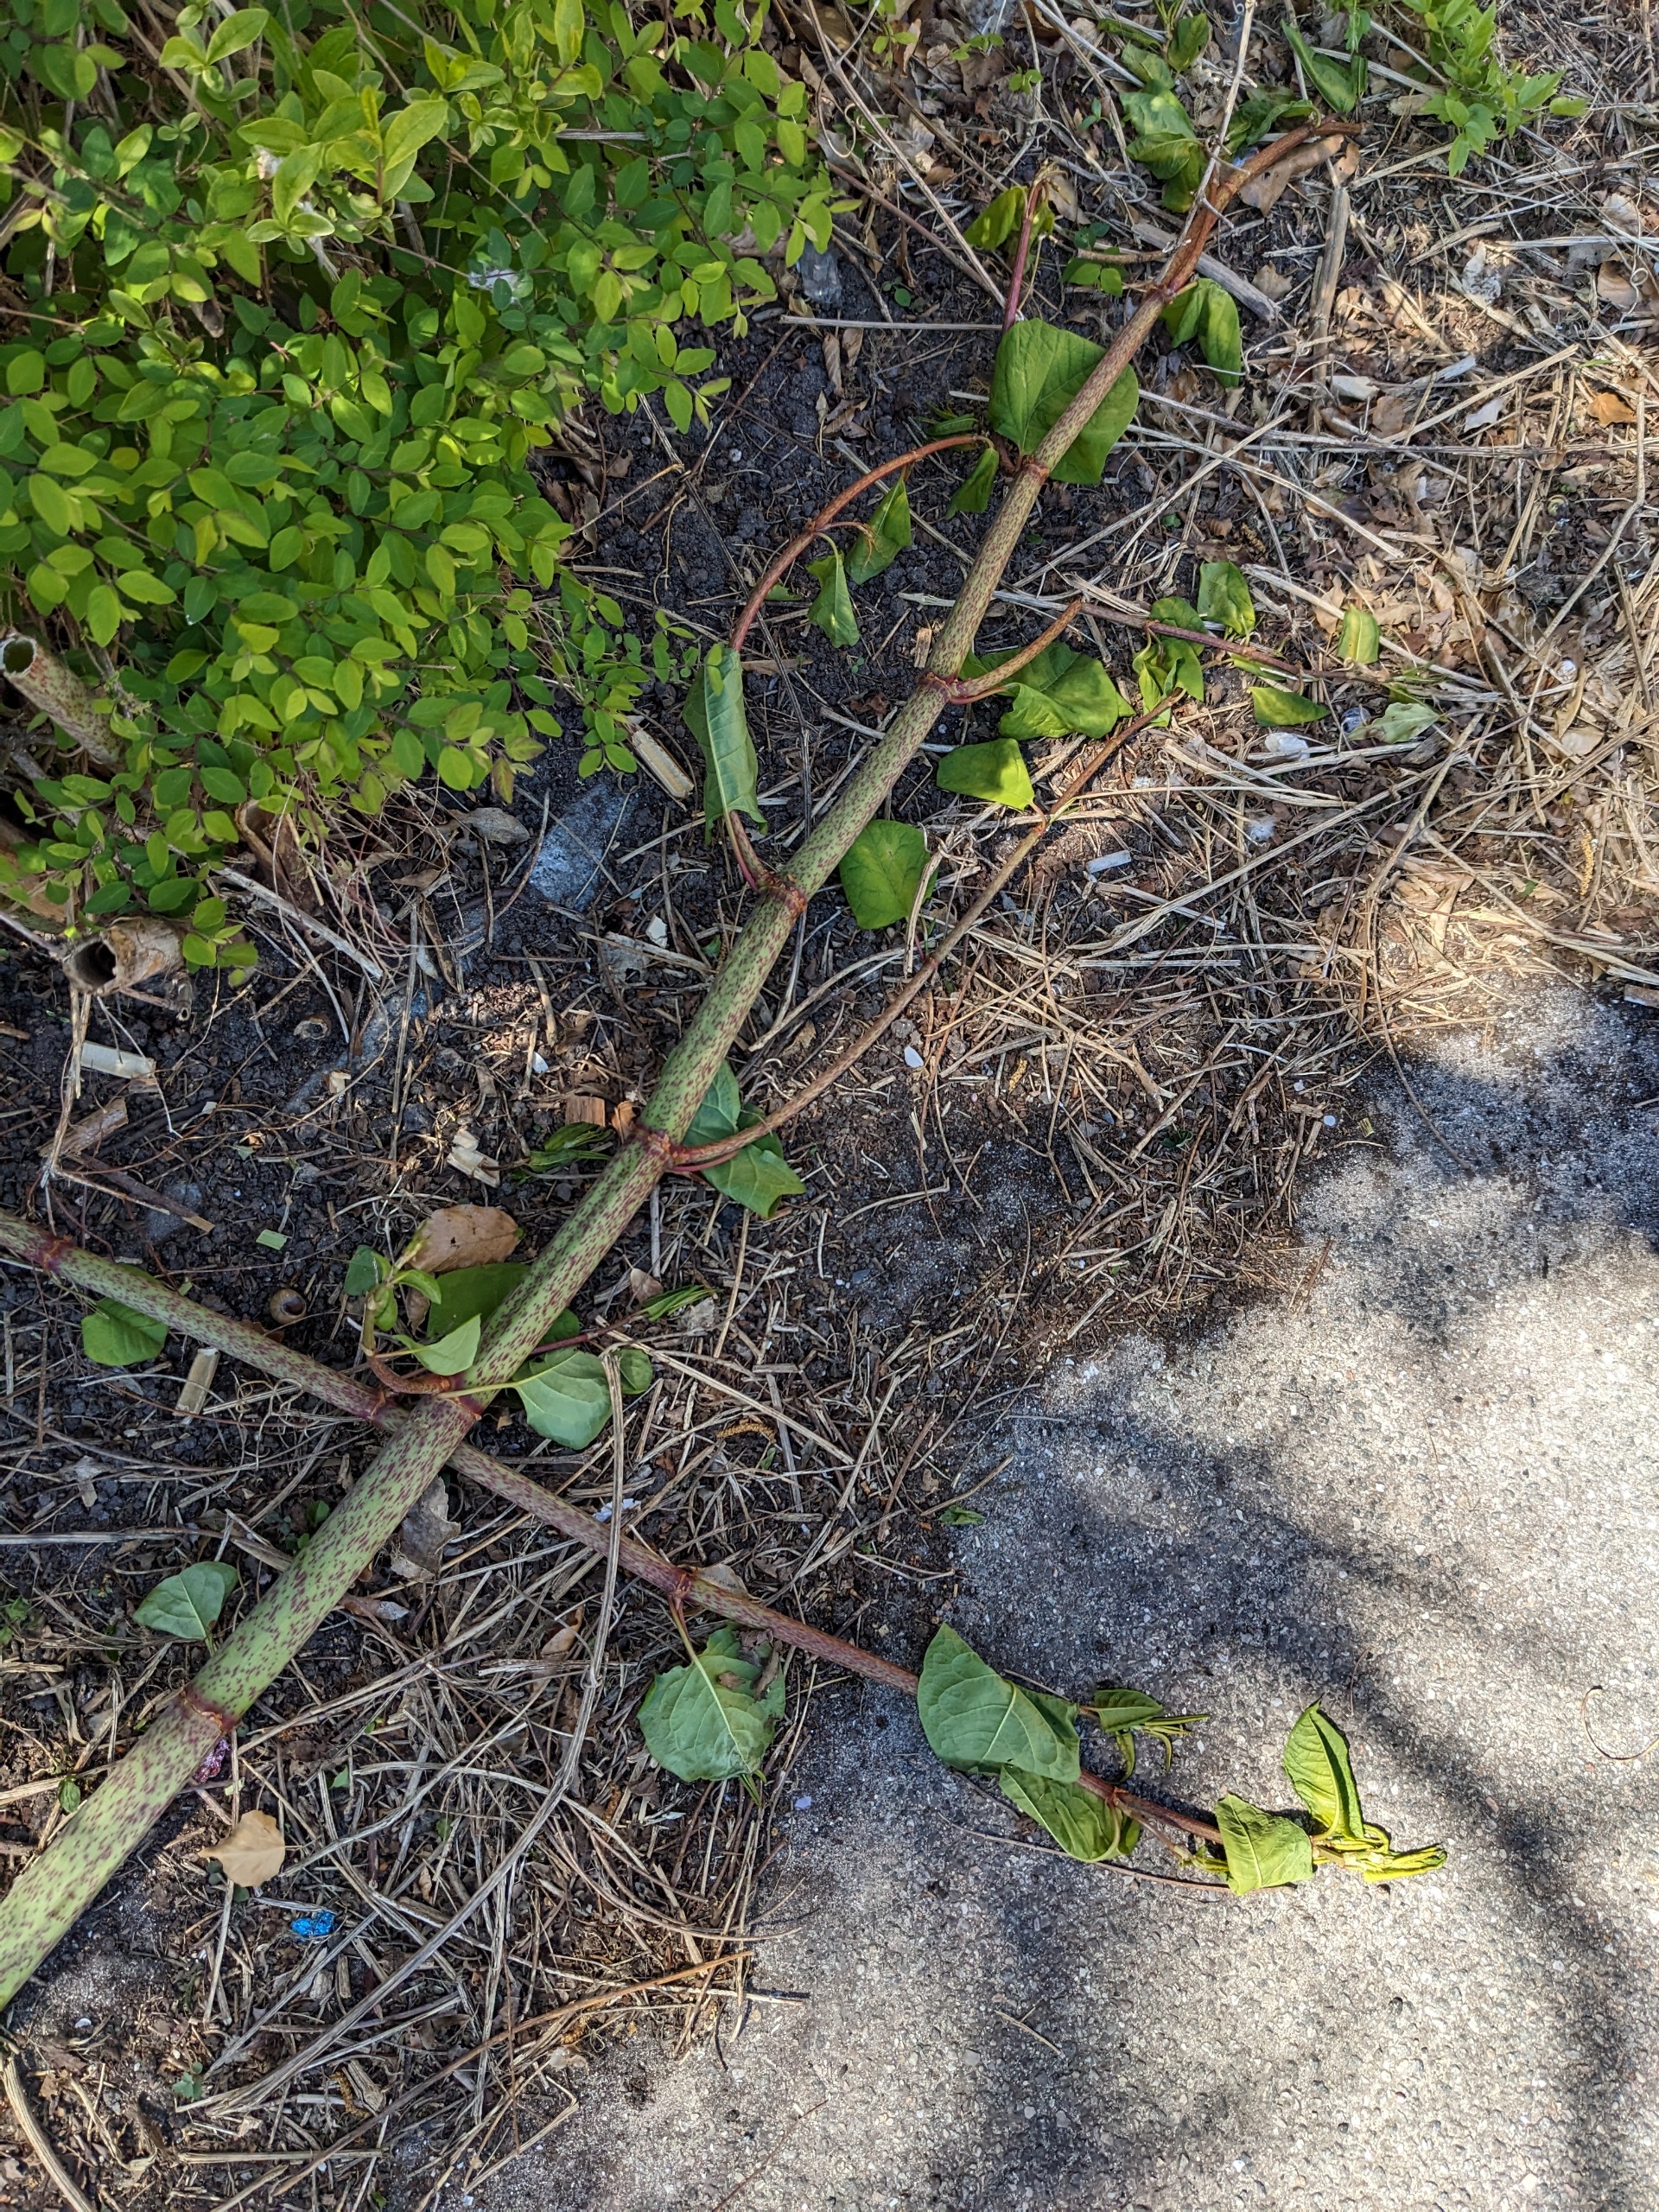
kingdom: Plantae
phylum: Tracheophyta
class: Magnoliopsida
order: Caryophyllales
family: Polygonaceae
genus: Reynoutria
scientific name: Reynoutria japonica
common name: Japan-pileurt
